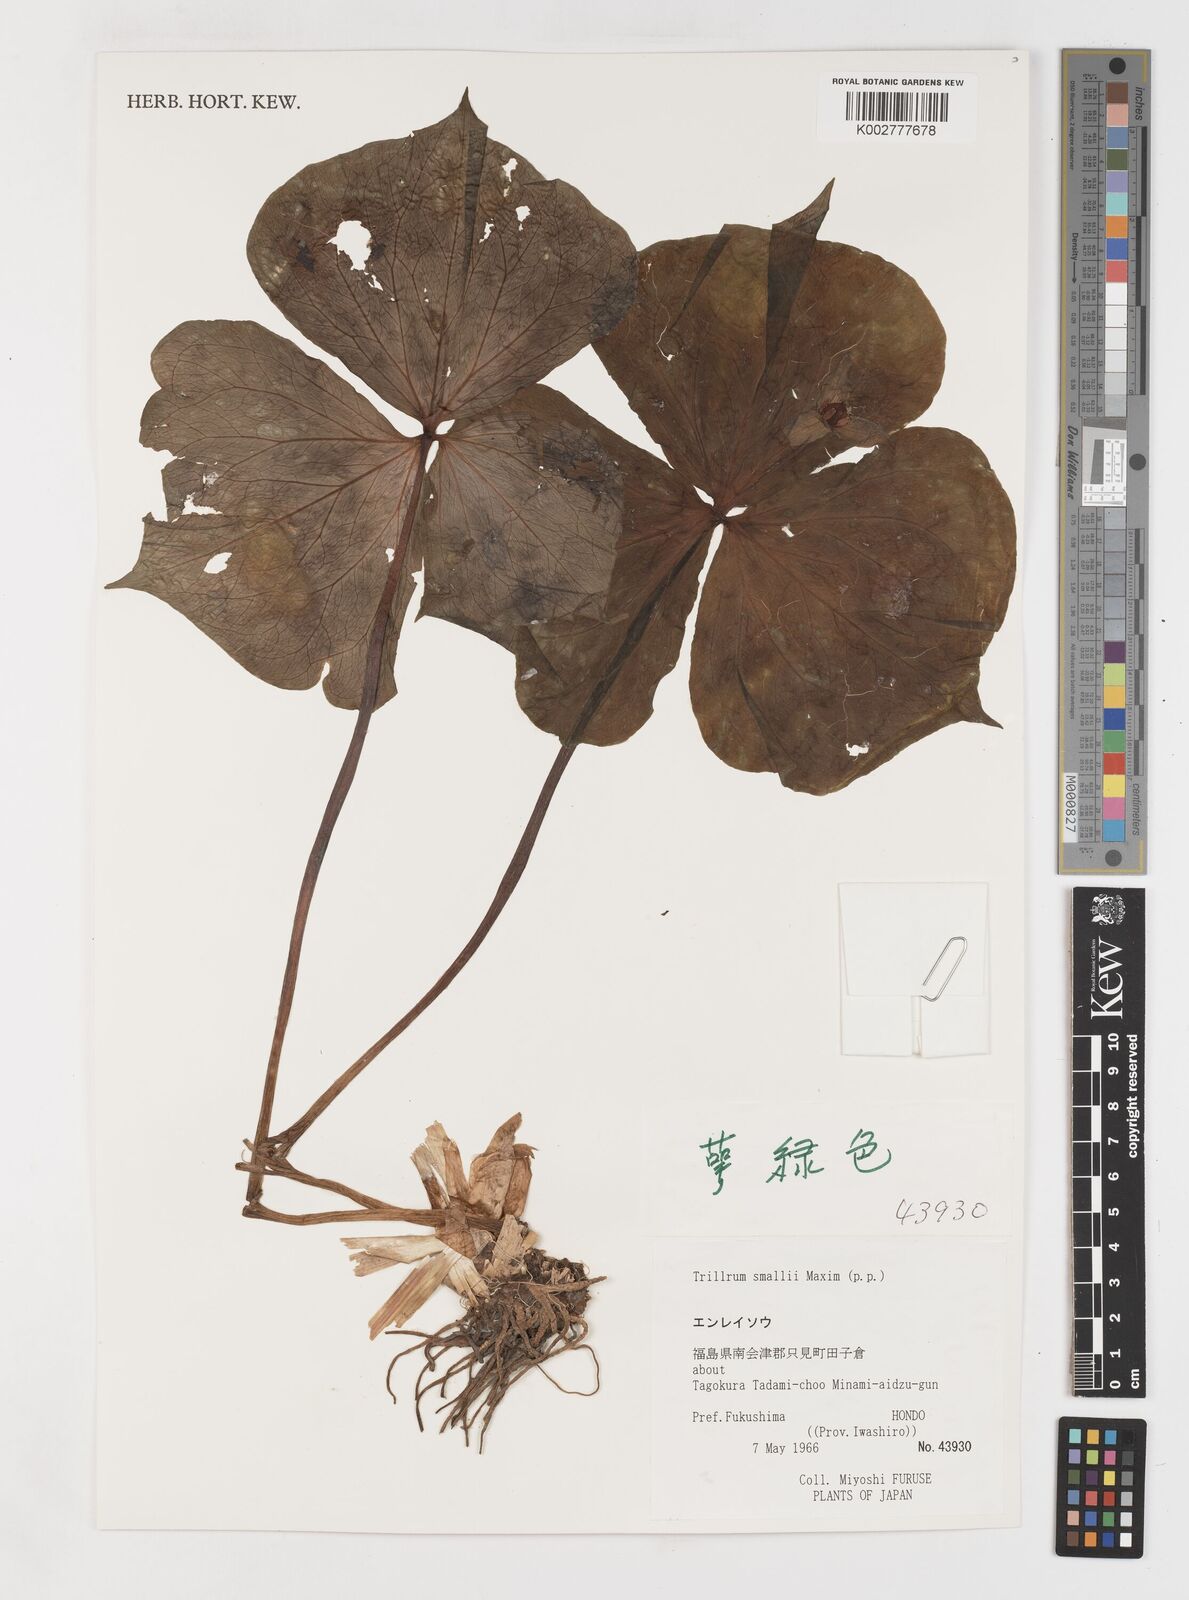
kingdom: Plantae
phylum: Tracheophyta
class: Liliopsida
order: Liliales
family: Melanthiaceae
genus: Trillium
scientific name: Trillium smallii
